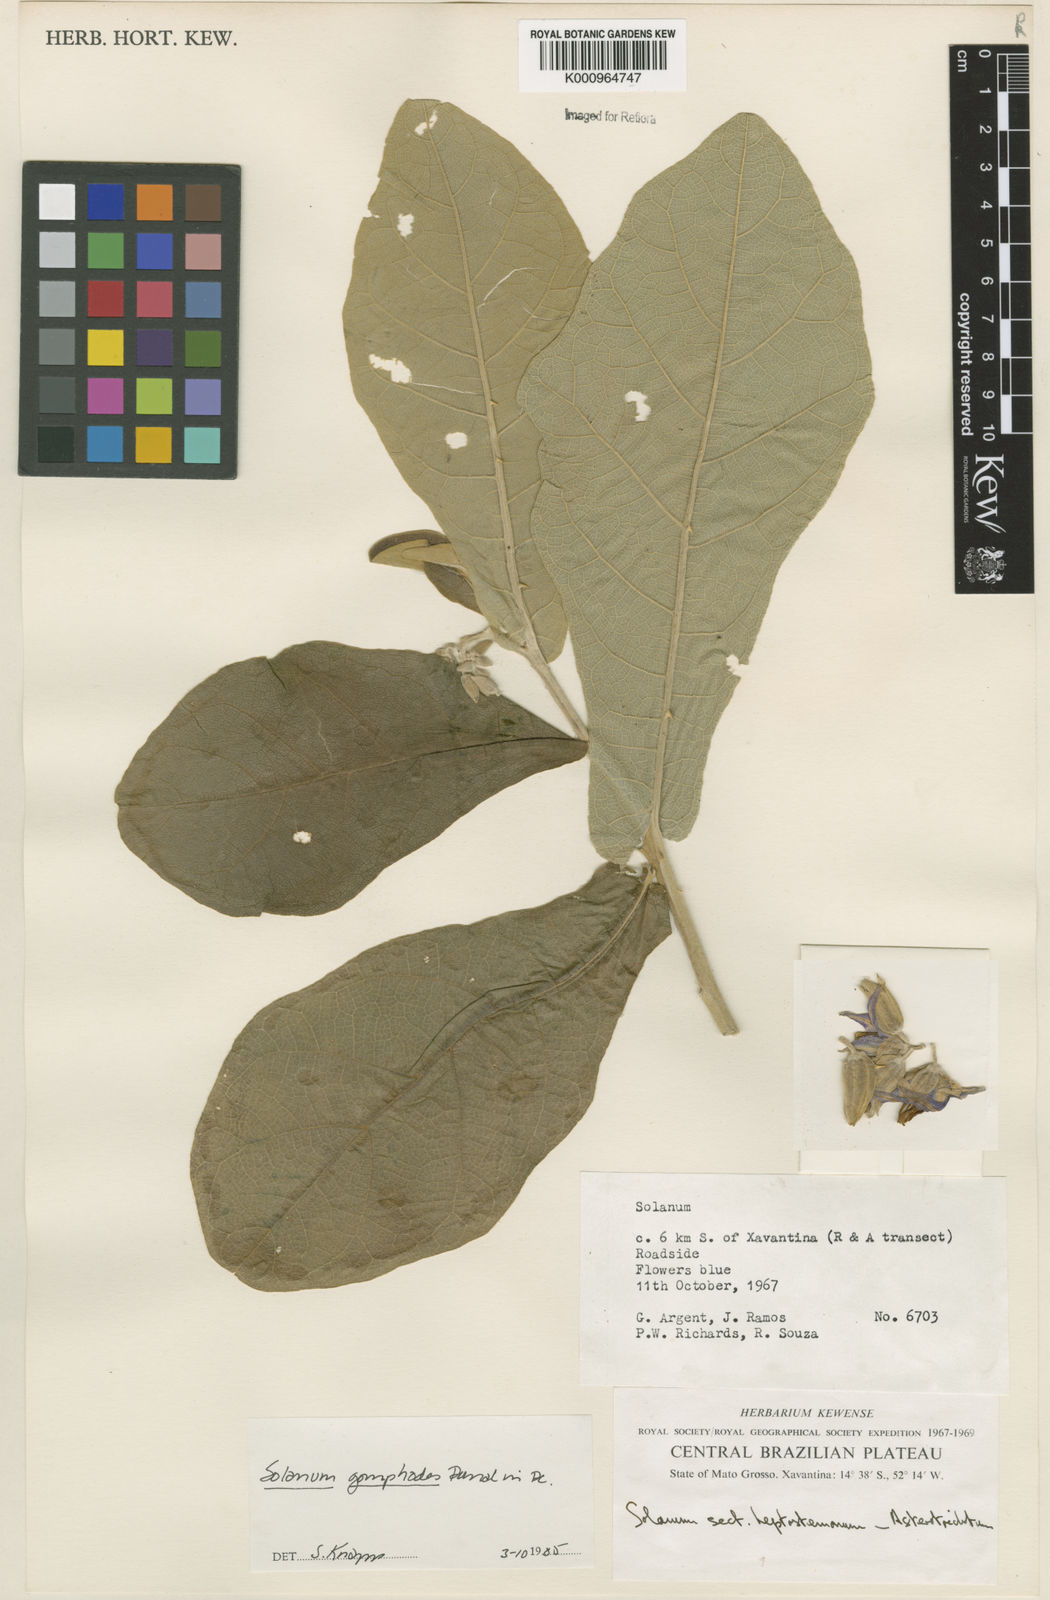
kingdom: Plantae
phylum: Tracheophyta
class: Magnoliopsida
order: Solanales
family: Solanaceae
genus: Solanum
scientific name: Solanum gomphodes
